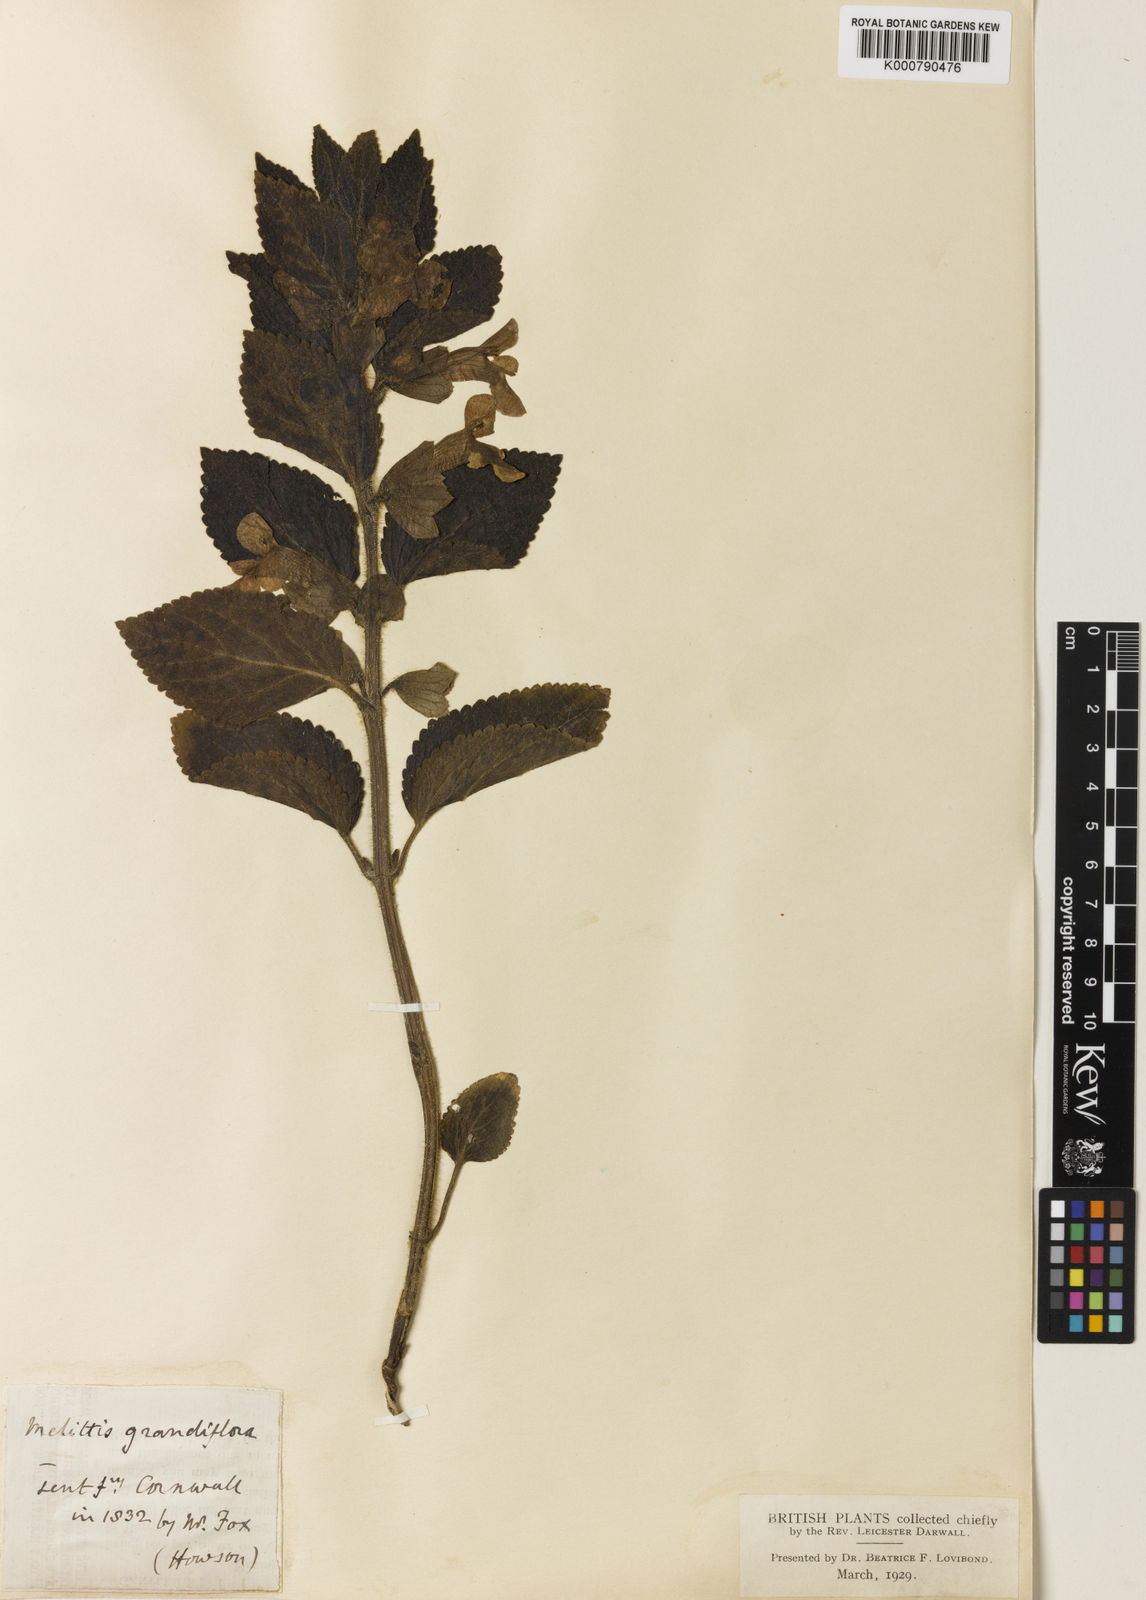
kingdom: Plantae
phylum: Tracheophyta
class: Magnoliopsida
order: Lamiales
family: Lamiaceae
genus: Melittis
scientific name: Melittis melissophyllum
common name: Bastard balm
